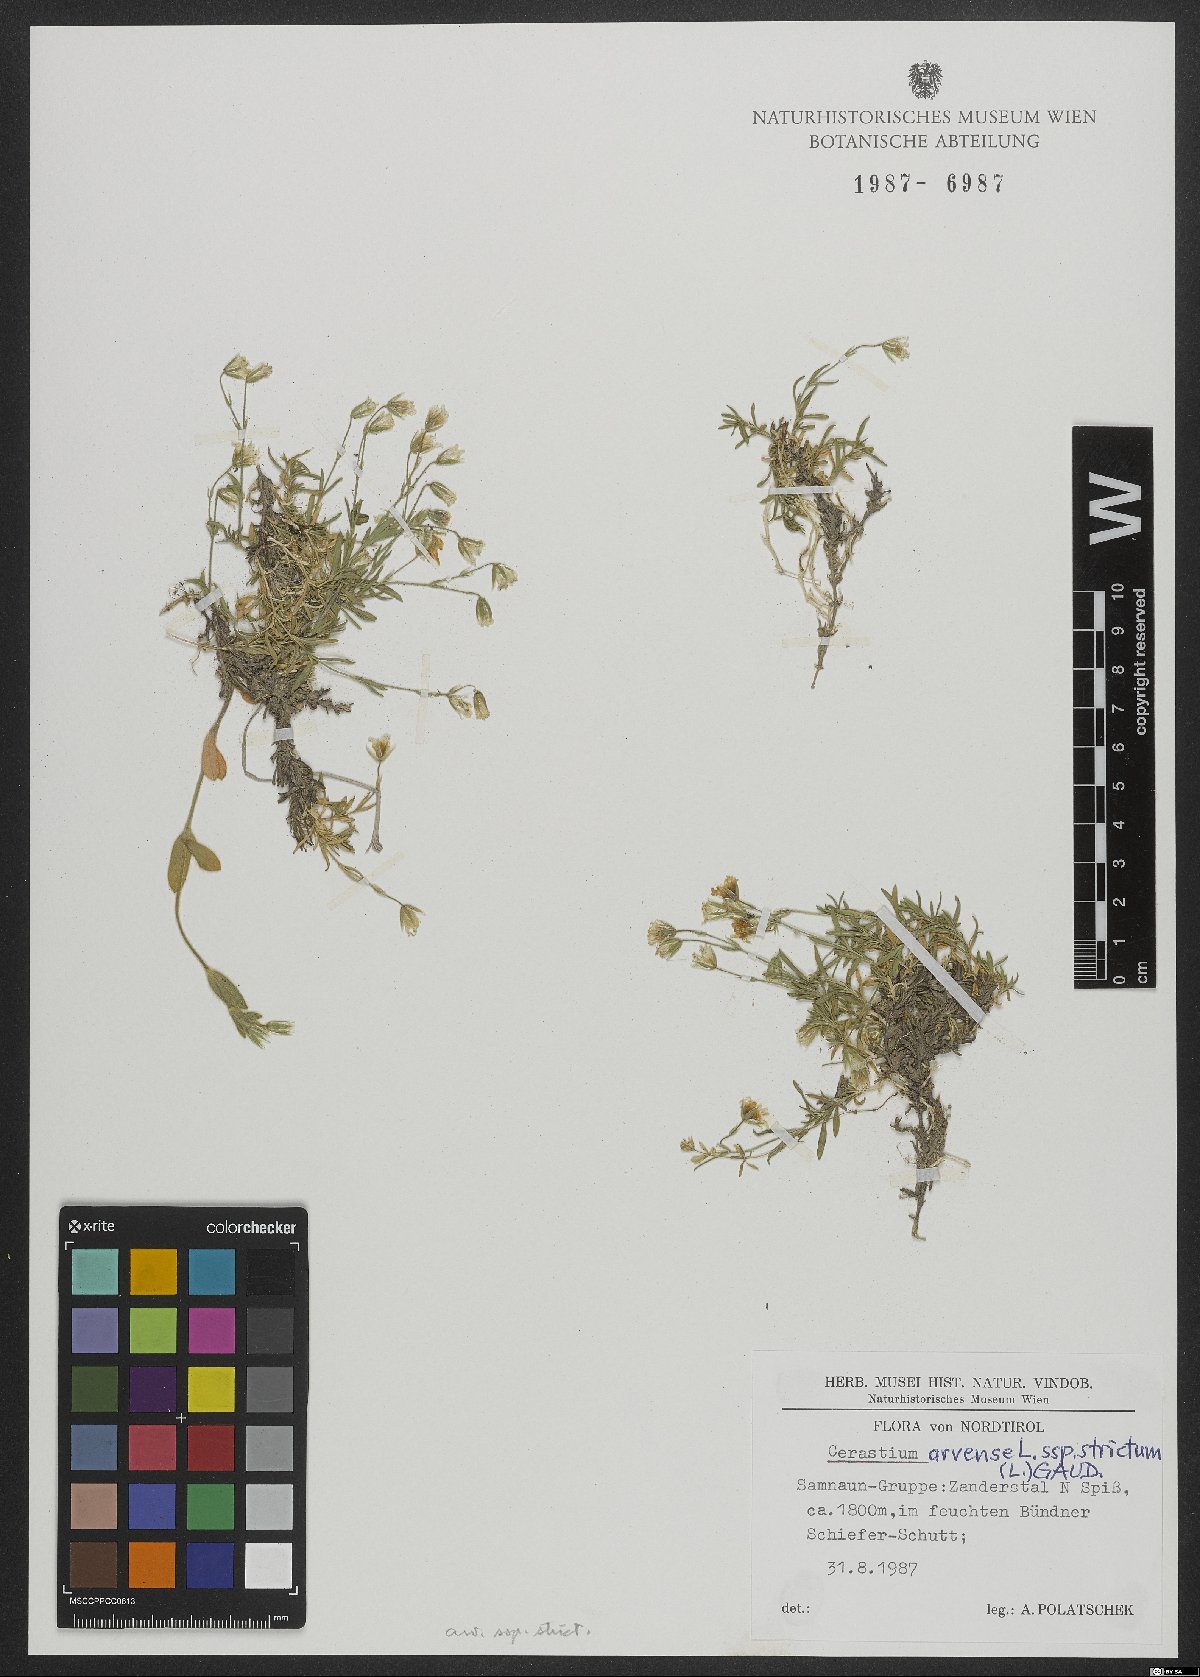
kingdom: Plantae
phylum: Tracheophyta
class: Magnoliopsida
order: Caryophyllales
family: Caryophyllaceae
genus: Cerastium
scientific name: Cerastium elongatum
